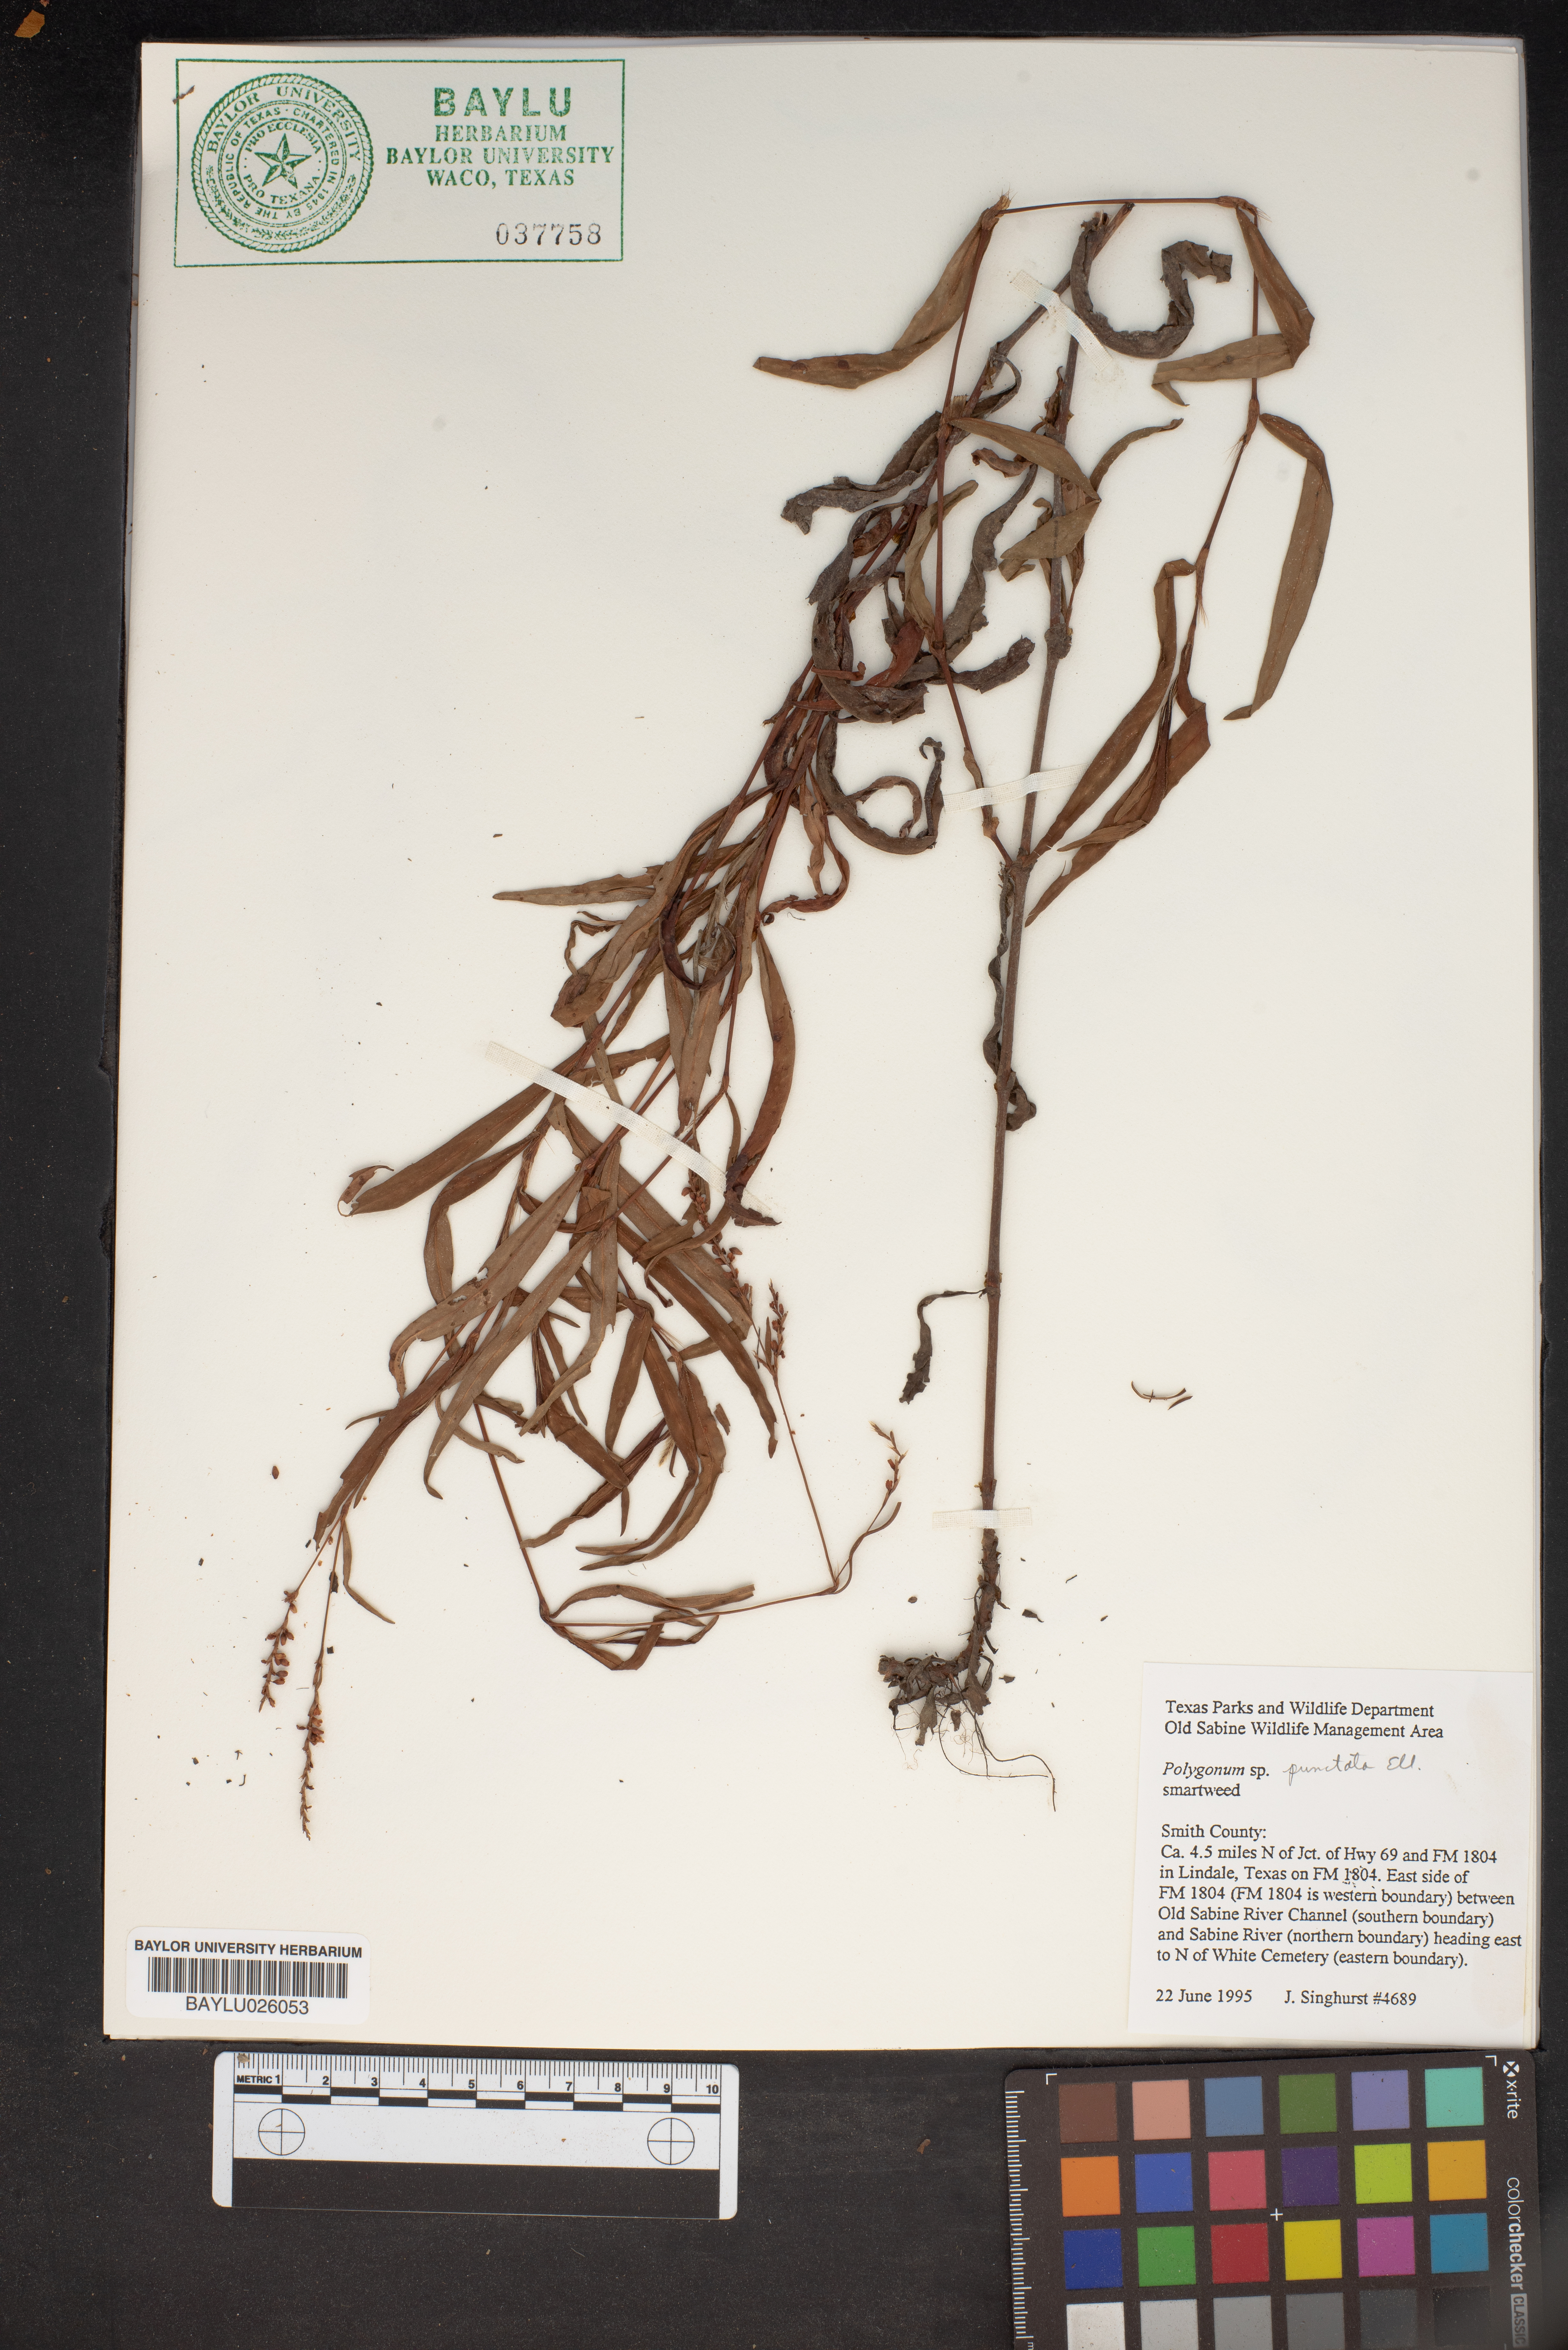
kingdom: Plantae
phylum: Tracheophyta
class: Magnoliopsida
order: Caryophyllales
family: Polygonaceae
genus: Persicaria
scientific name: Persicaria punctata
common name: Dotted smartweed
